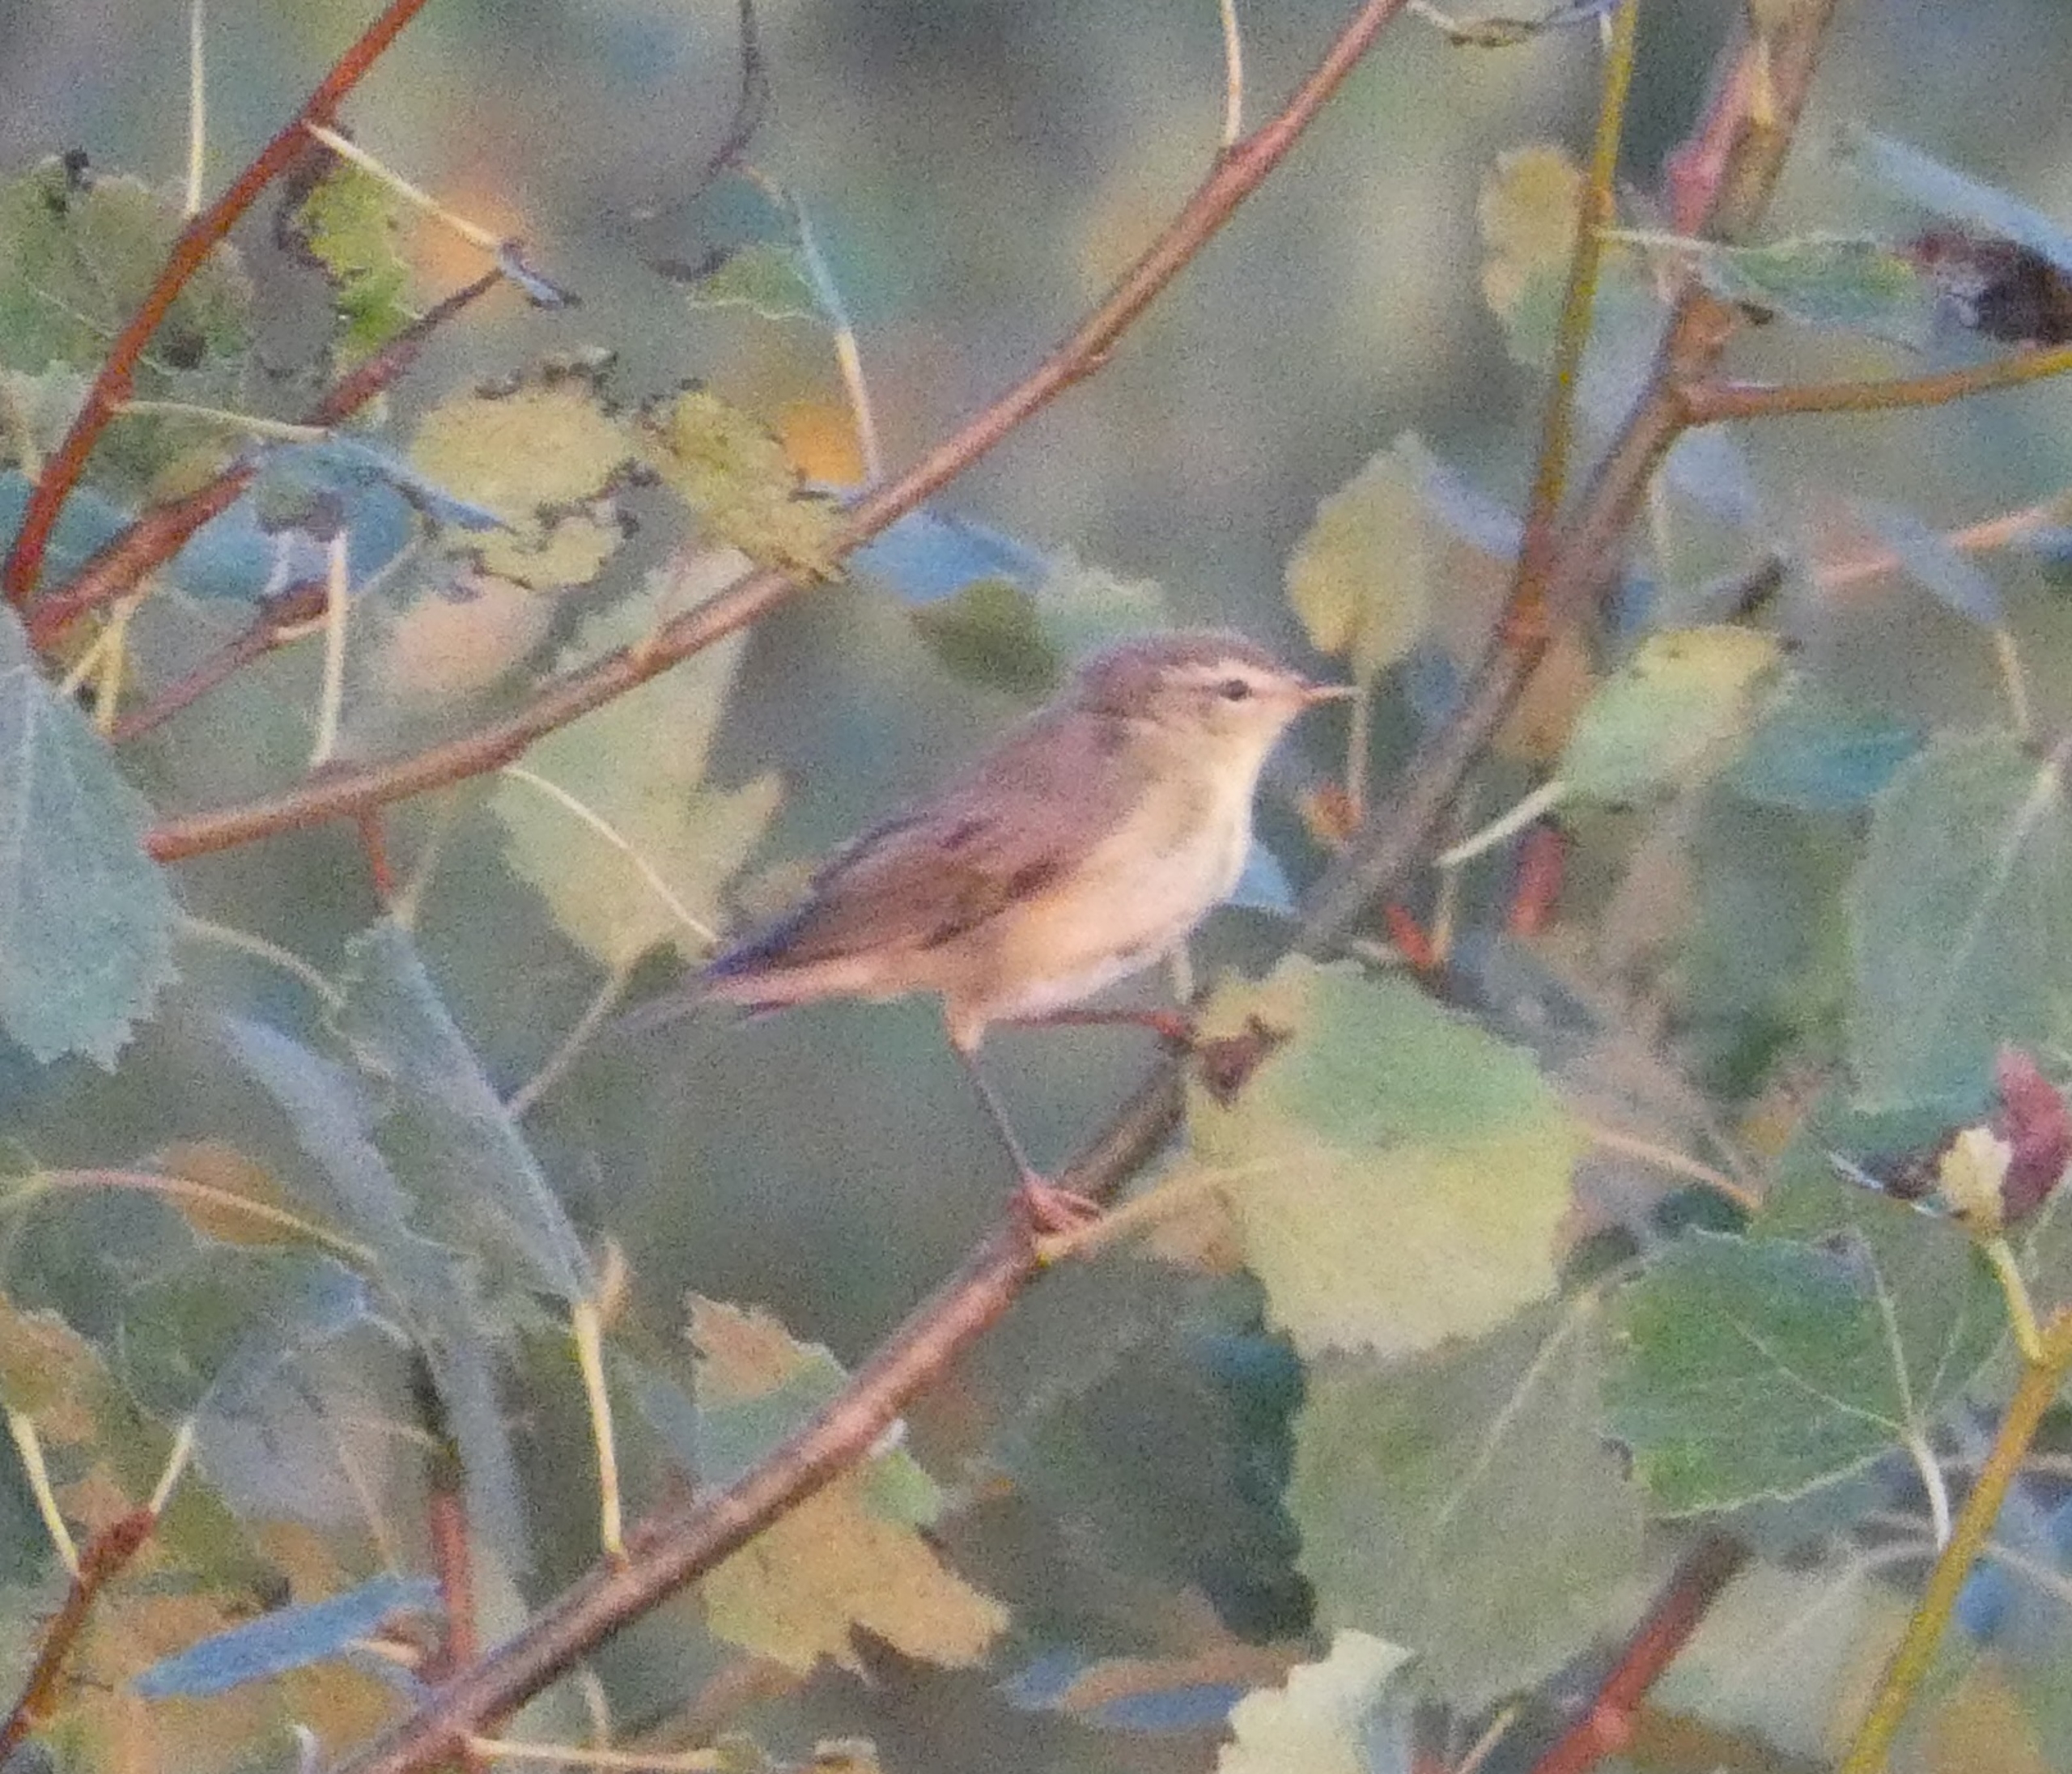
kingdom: Animalia
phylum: Chordata
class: Aves
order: Passeriformes
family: Phylloscopidae
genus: Phylloscopus
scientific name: Phylloscopus trochilus
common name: Løvsanger
